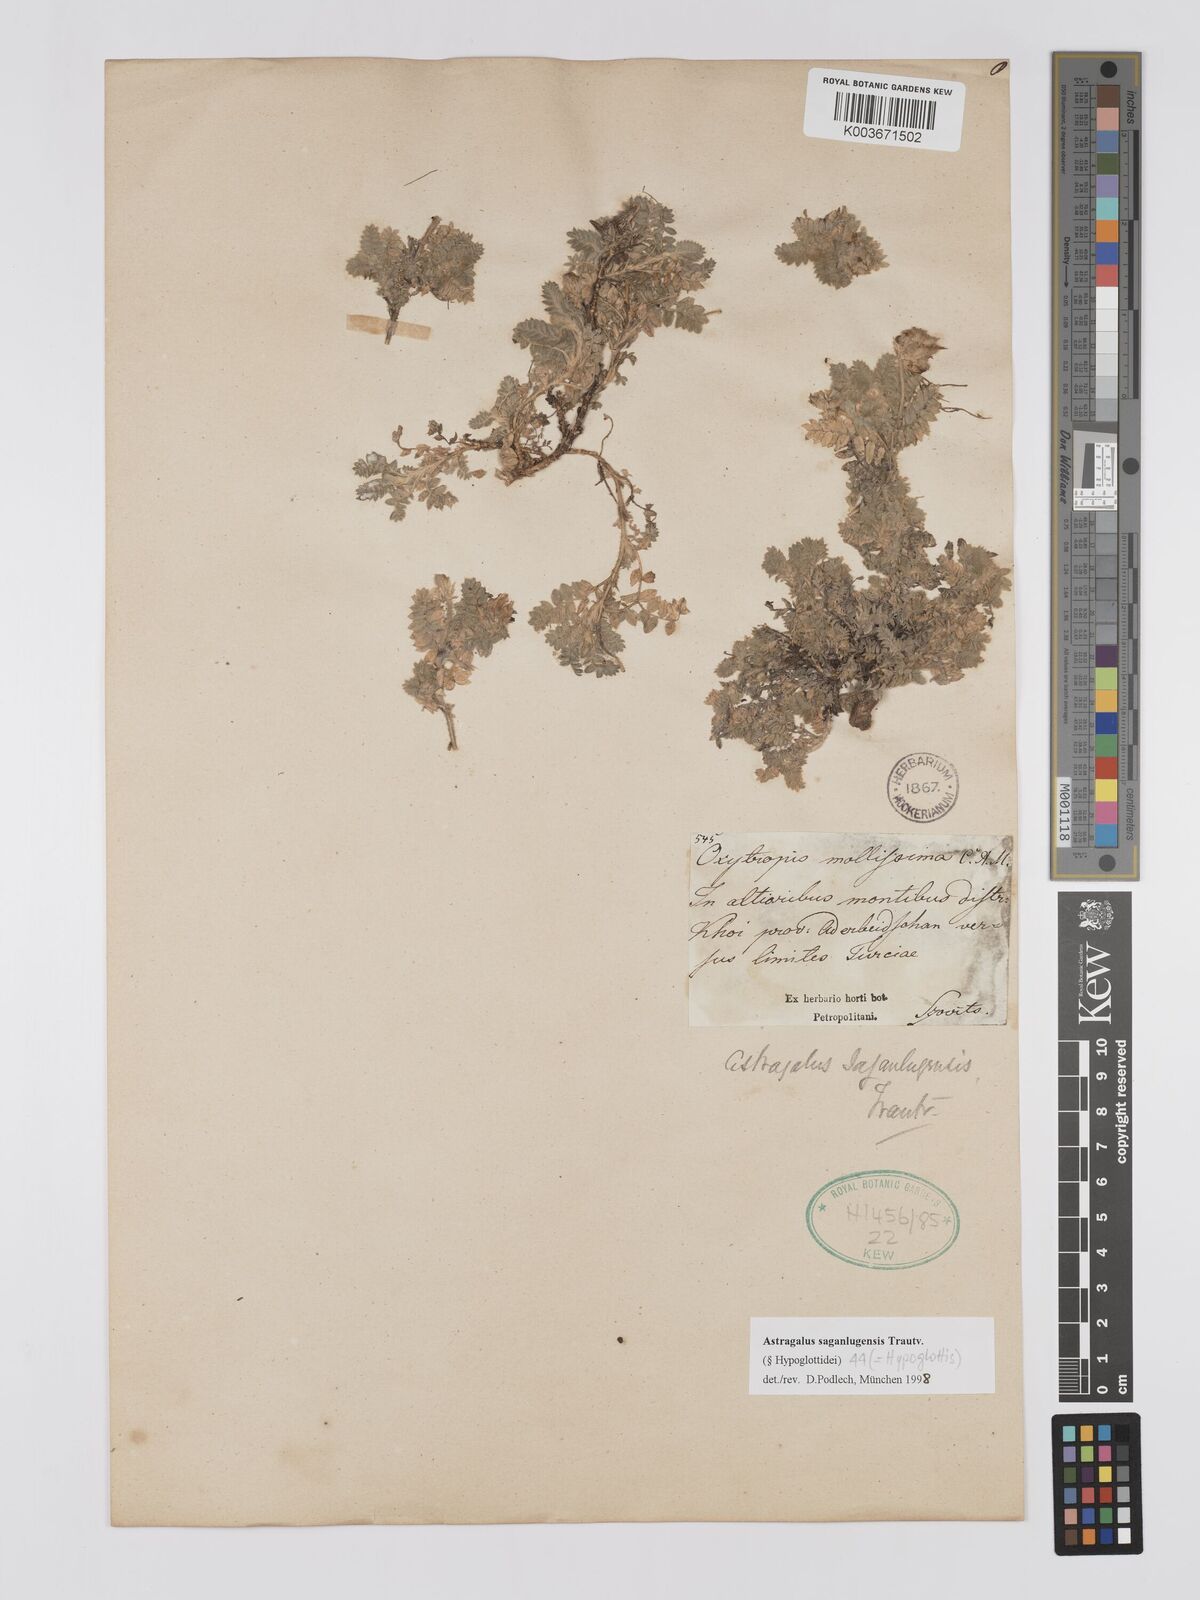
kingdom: Plantae
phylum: Tracheophyta
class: Magnoliopsida
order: Fabales
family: Fabaceae
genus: Astragalus
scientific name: Astragalus saganlugensis
